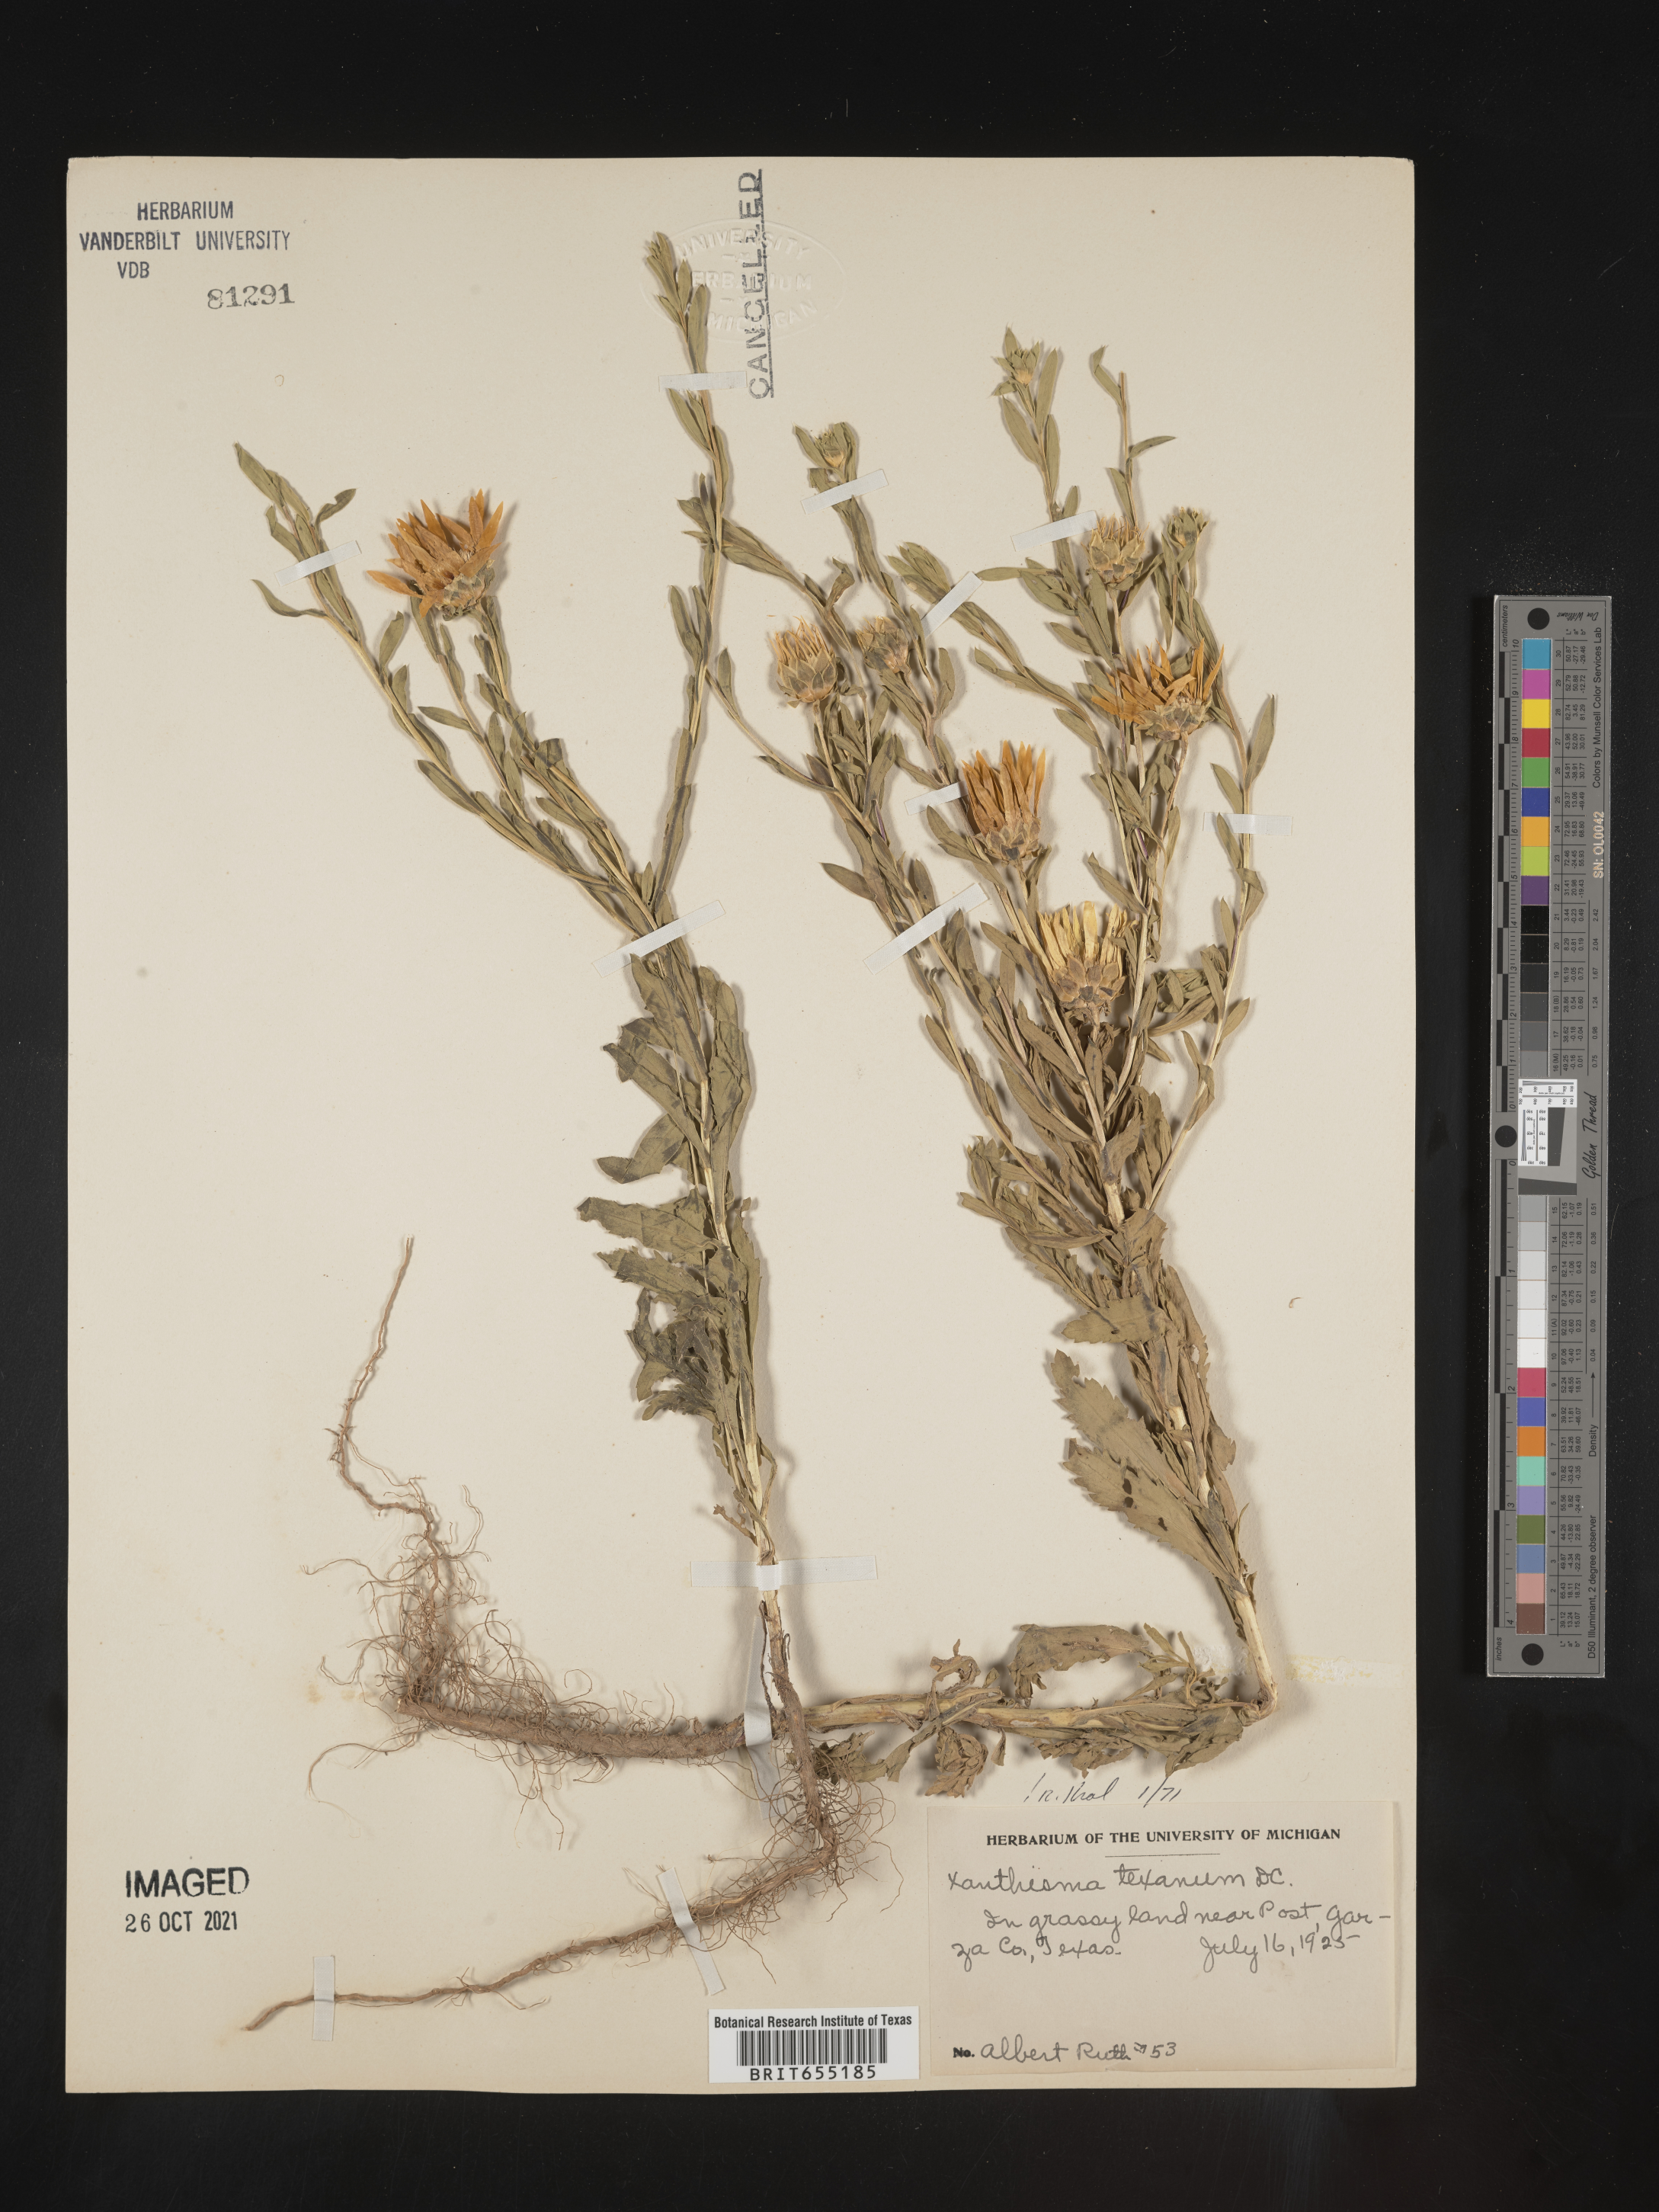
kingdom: Plantae
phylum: Tracheophyta
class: Magnoliopsida
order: Asterales
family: Asteraceae
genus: Xanthisma
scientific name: Xanthisma texanum
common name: Texas sleepy daisy
